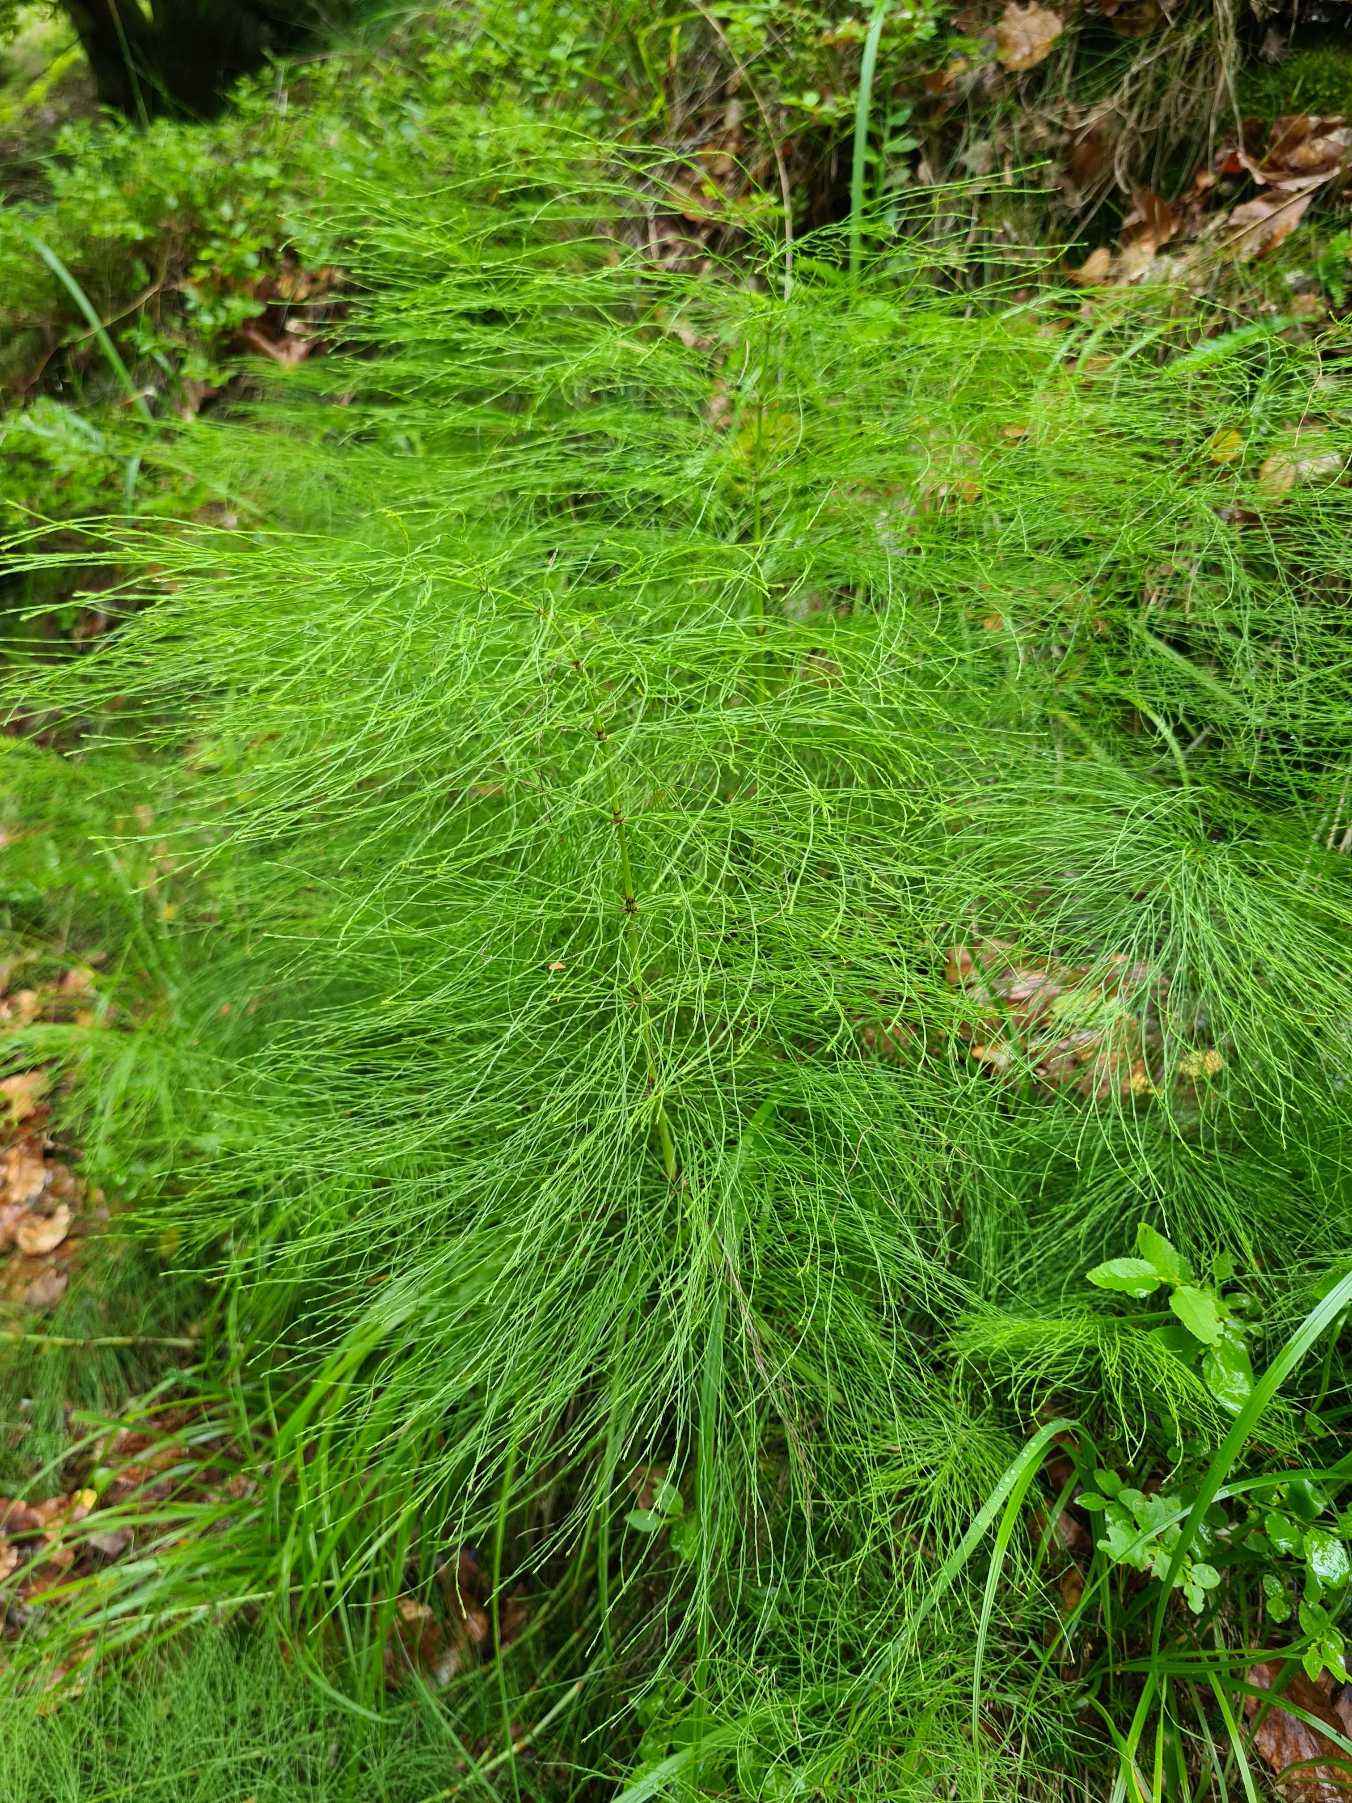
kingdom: Plantae
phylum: Tracheophyta
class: Polypodiopsida
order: Equisetales
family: Equisetaceae
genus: Equisetum
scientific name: Equisetum pratense
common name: Lund-padderok
